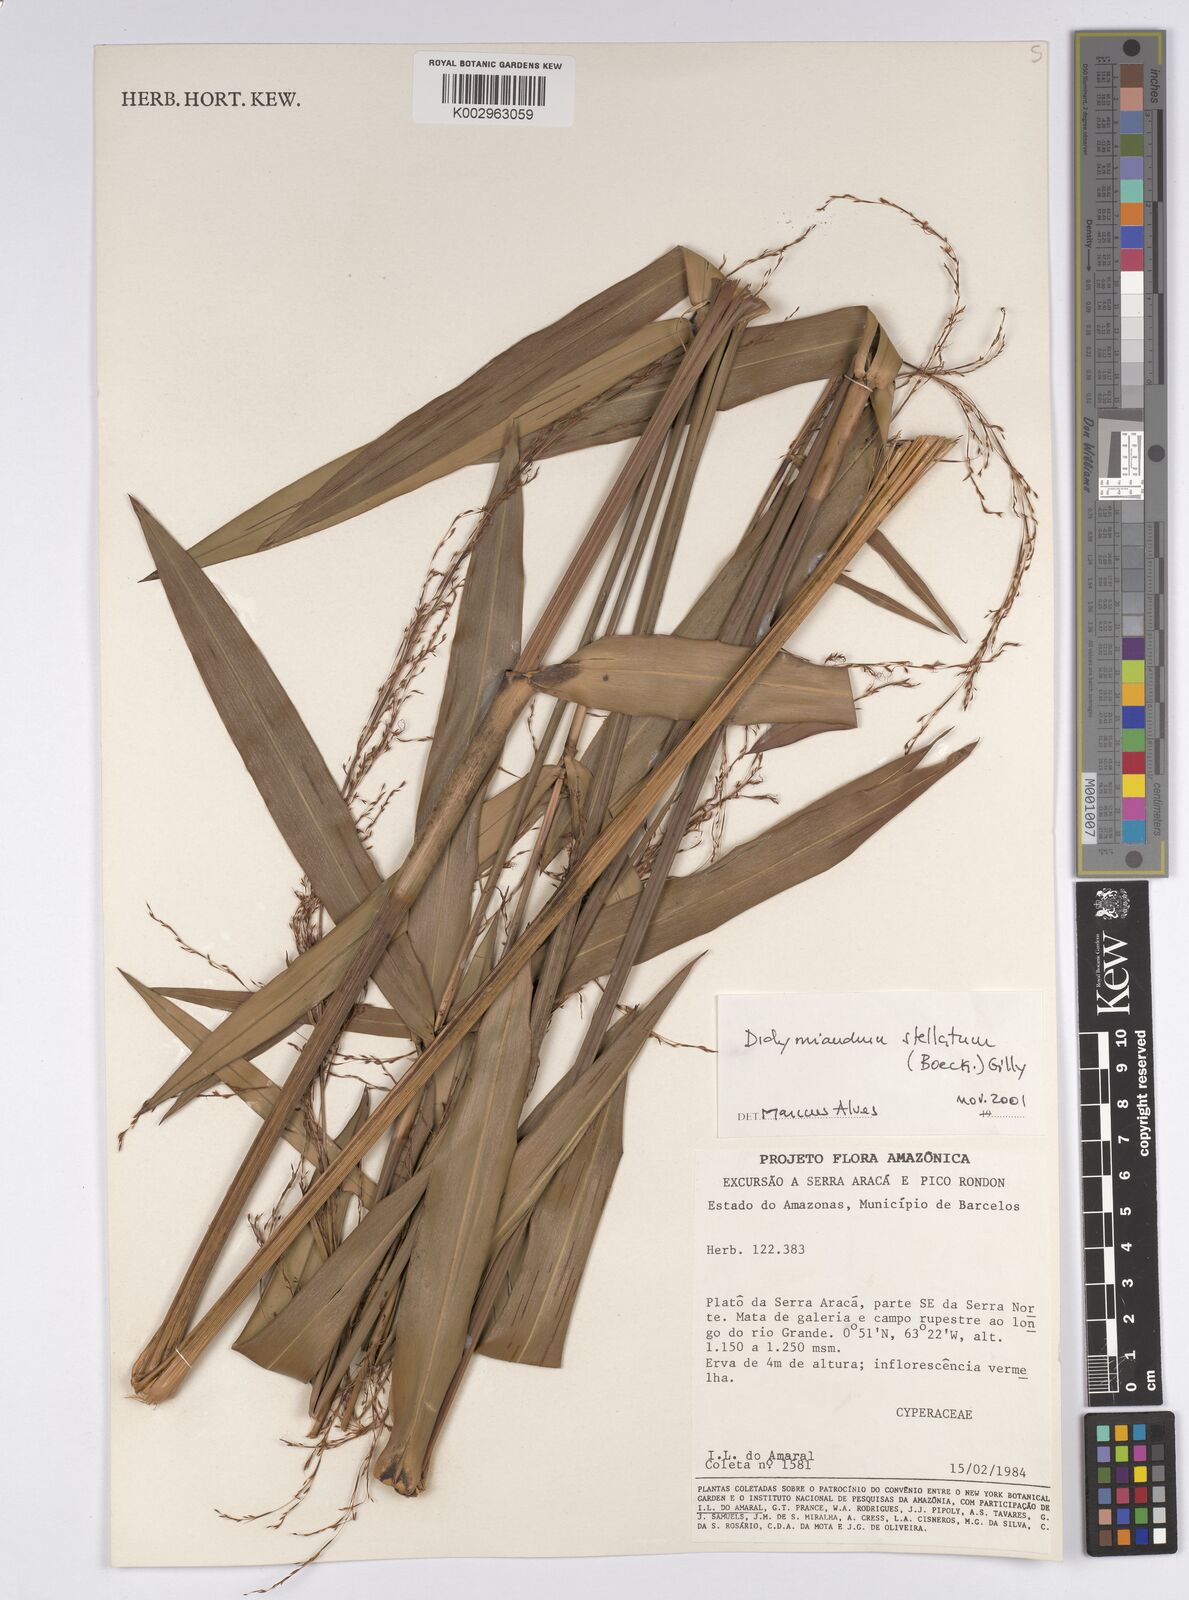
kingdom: Plantae
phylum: Tracheophyta
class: Liliopsida
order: Poales
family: Cyperaceae
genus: Didymiandrum
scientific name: Didymiandrum stellatum
